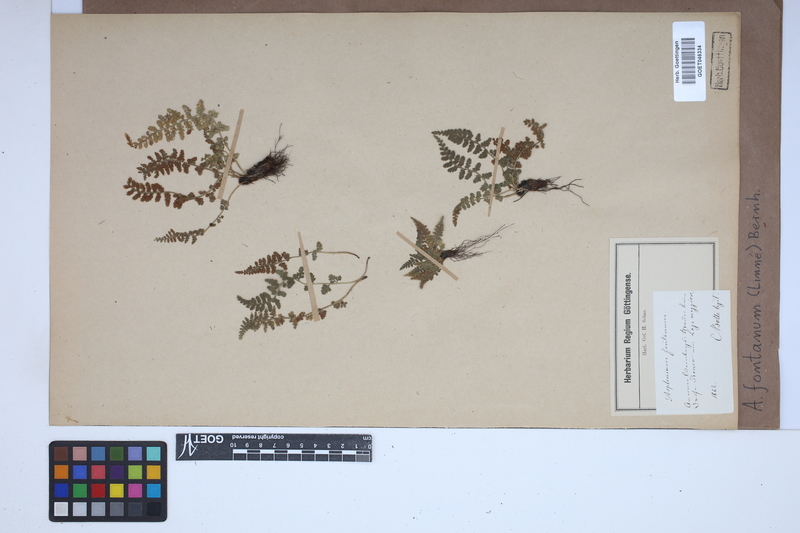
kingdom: Plantae
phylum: Tracheophyta
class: Polypodiopsida
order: Polypodiales
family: Aspleniaceae
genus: Asplenium
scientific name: Asplenium fontanum
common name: Fountain spleenwort
